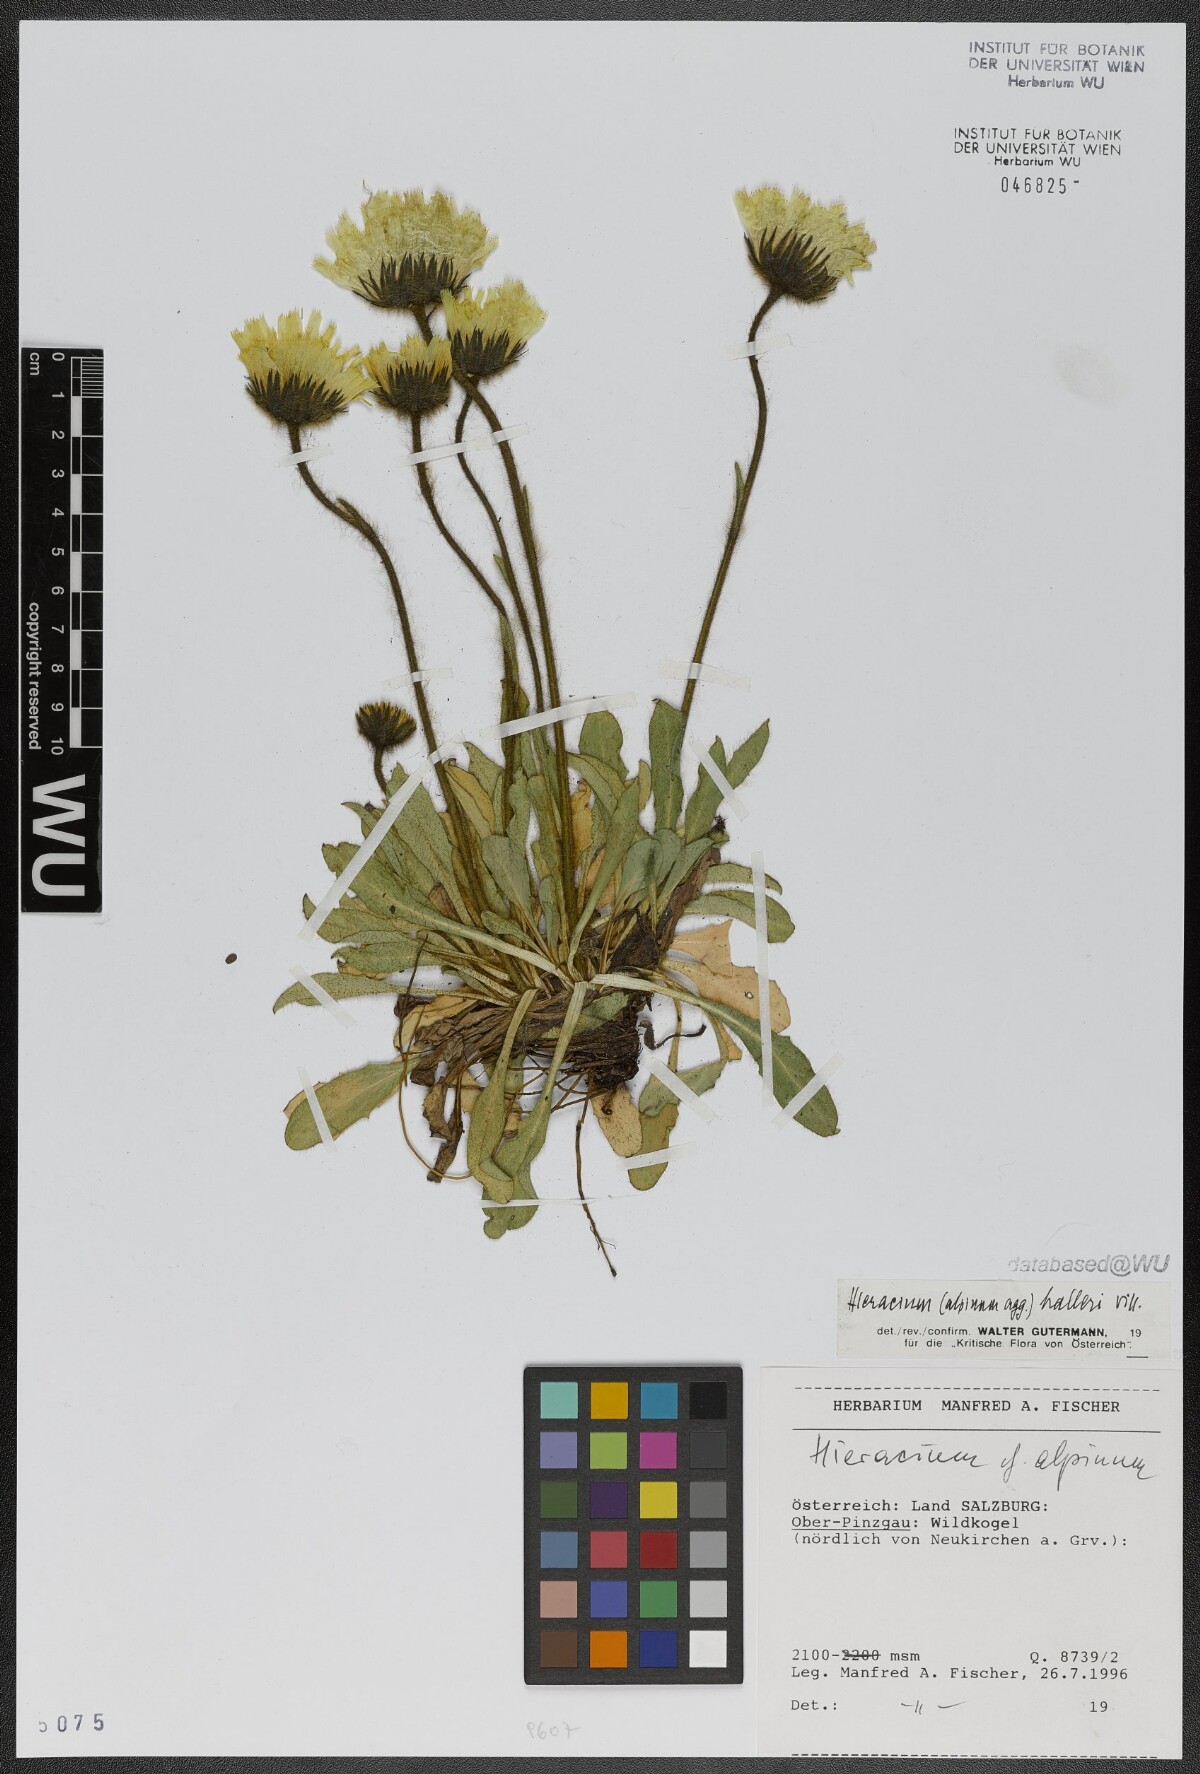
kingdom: Plantae
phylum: Tracheophyta
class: Magnoliopsida
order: Asterales
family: Asteraceae
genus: Hieracium
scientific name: Hieracium alpinum
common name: Alpine hawkweed
